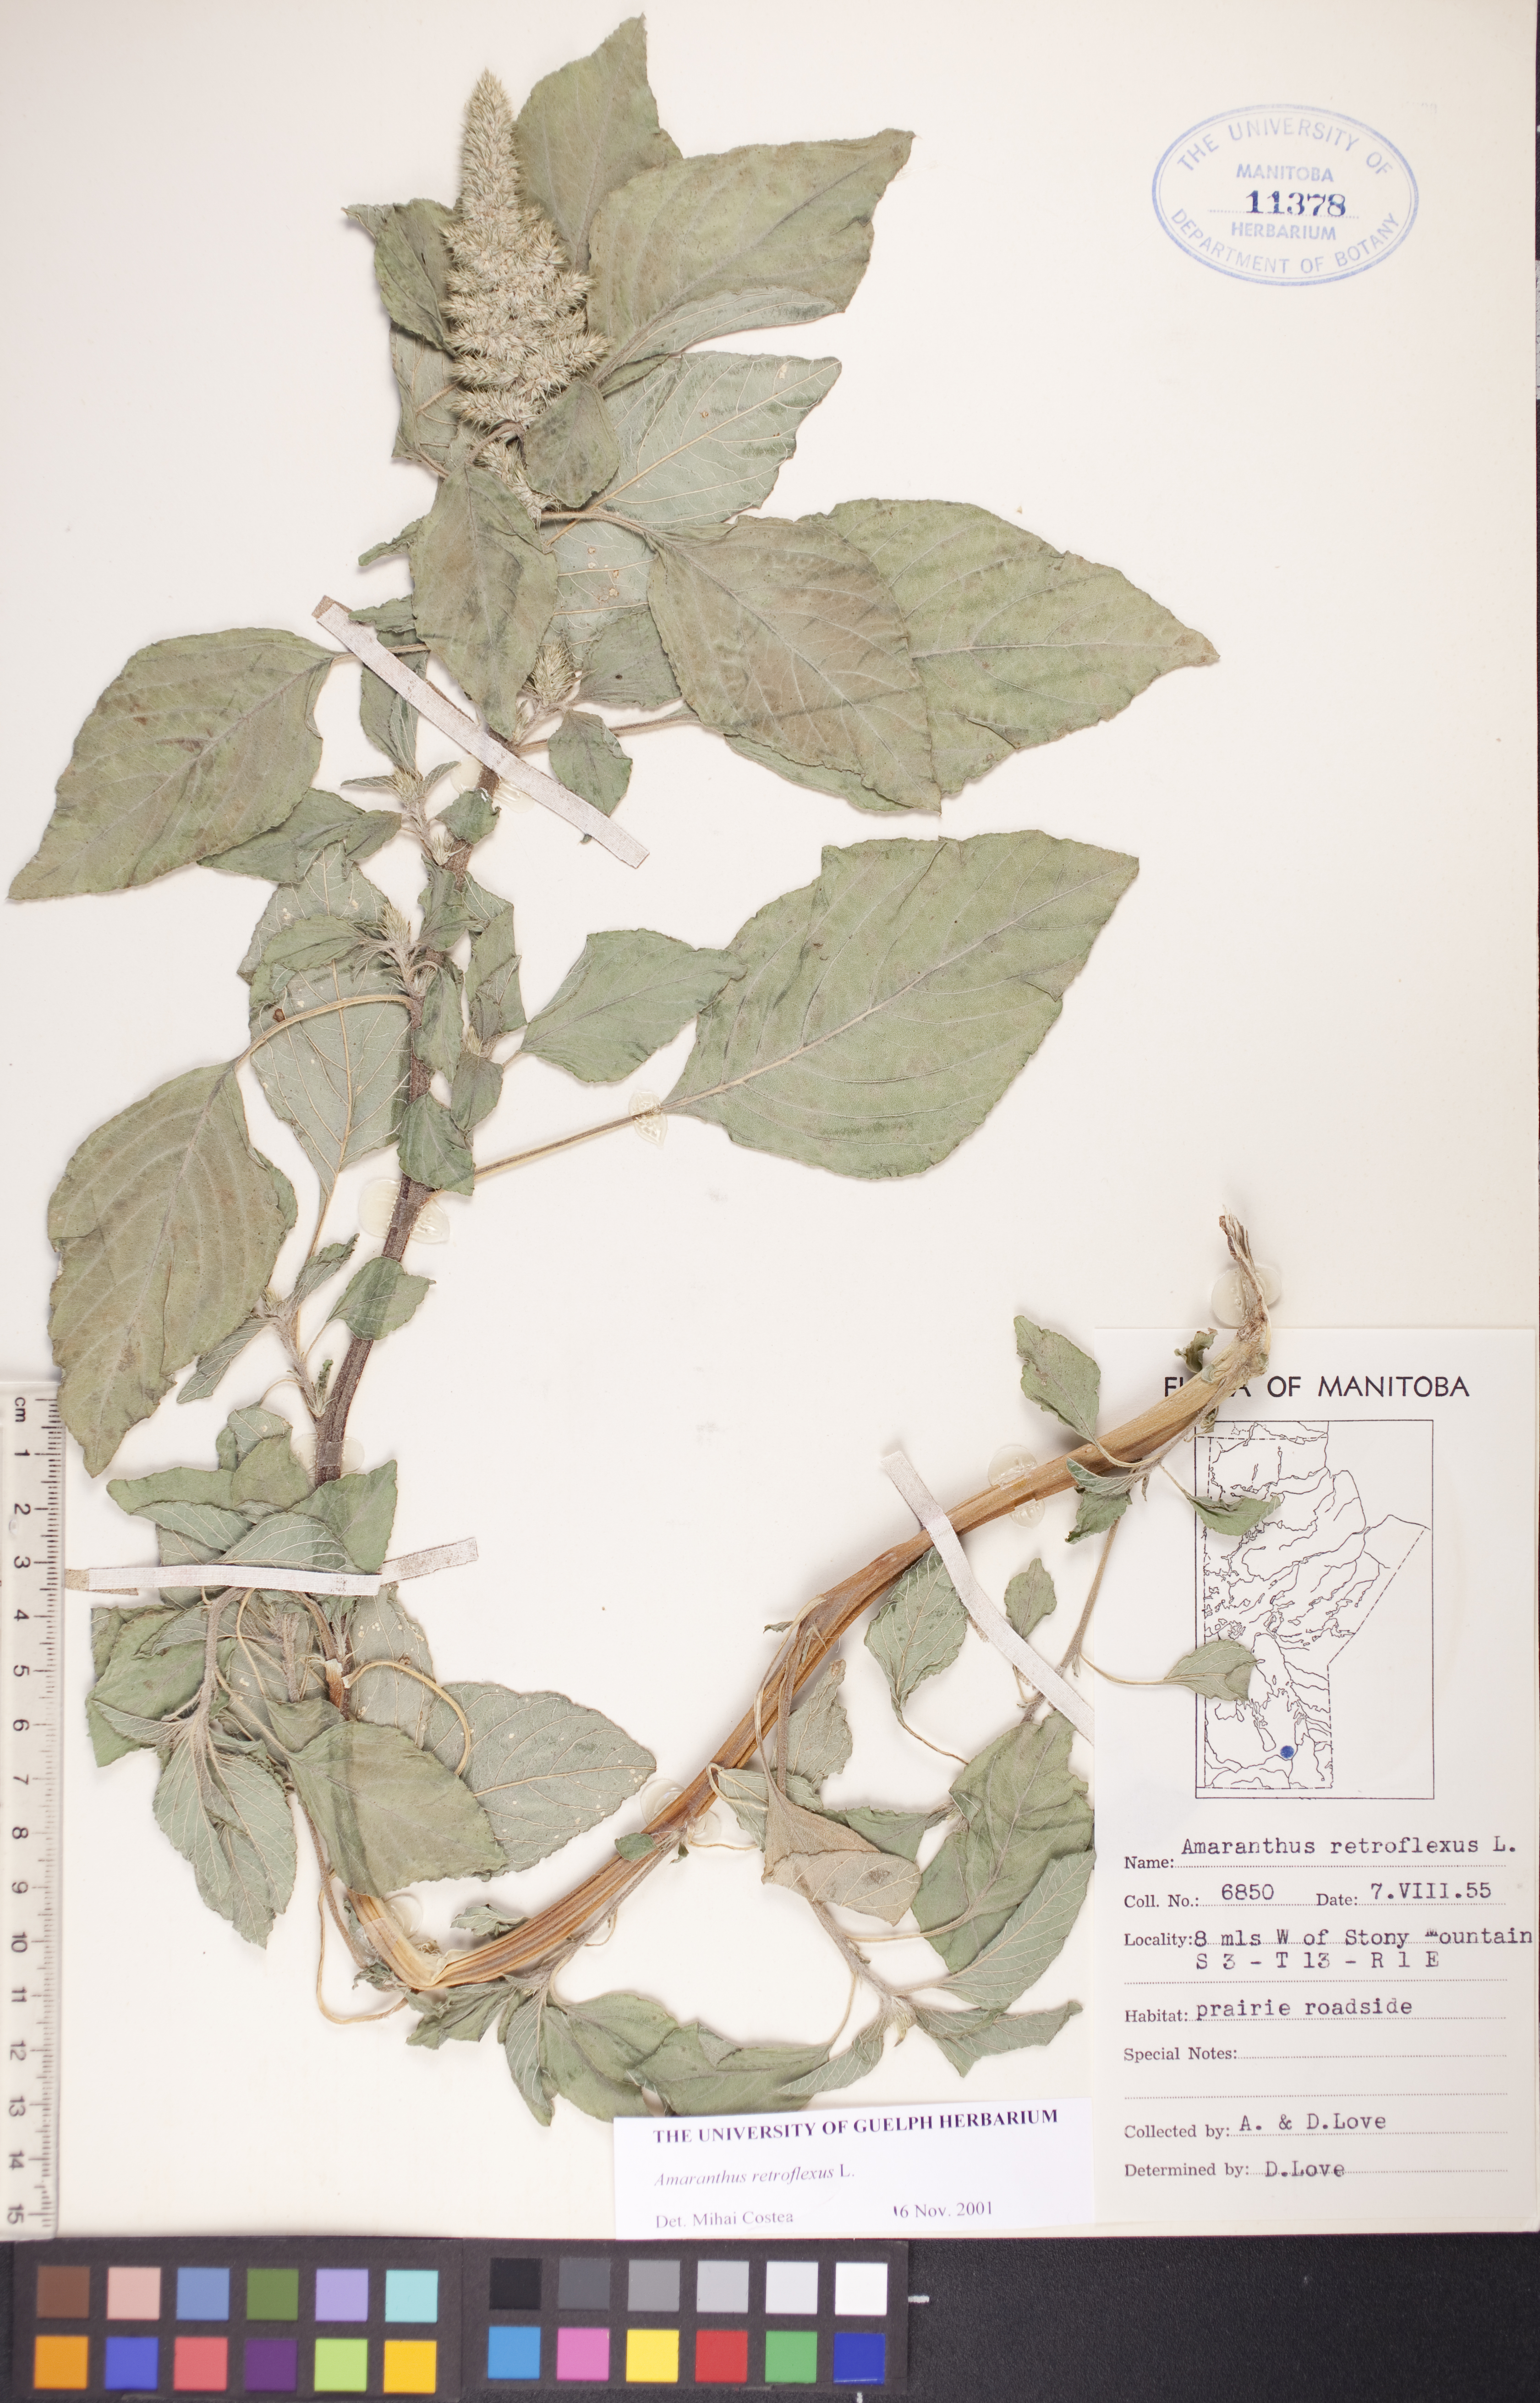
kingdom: Plantae
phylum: Tracheophyta
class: Magnoliopsida
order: Caryophyllales
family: Amaranthaceae
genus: Amaranthus
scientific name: Amaranthus retroflexus
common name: Redroot amaranth
